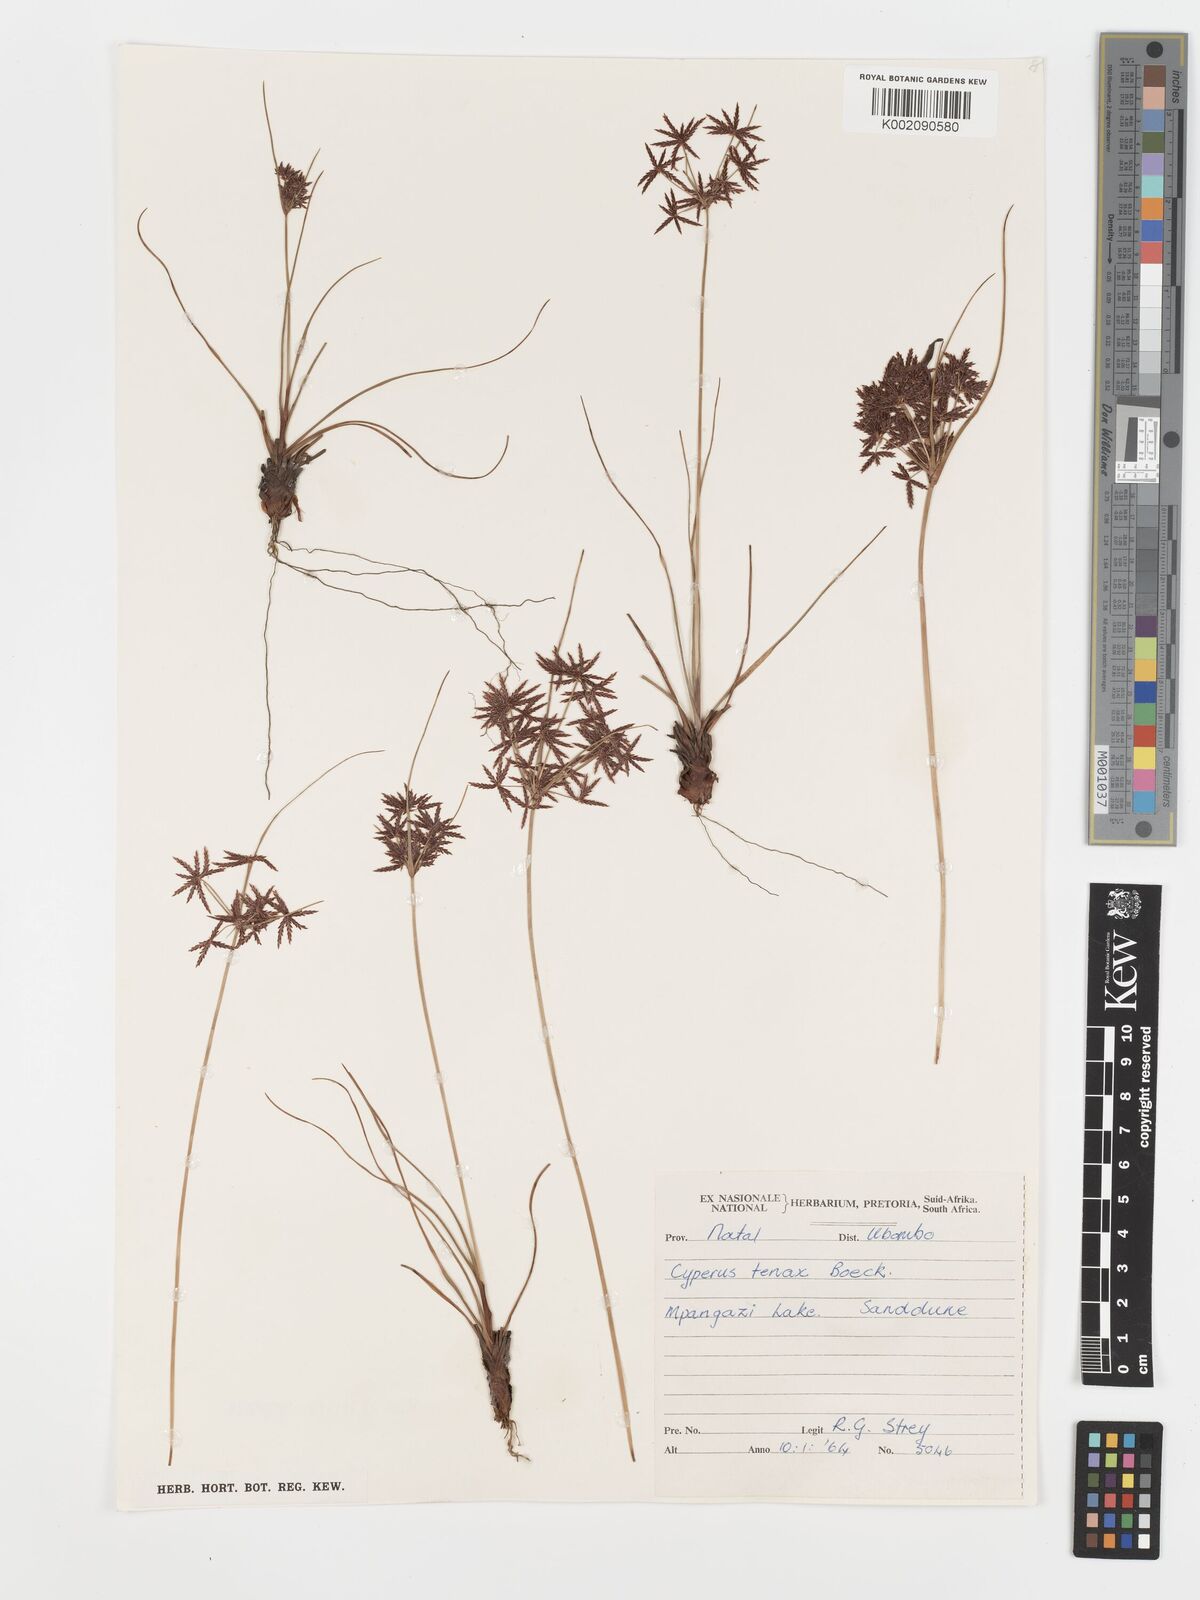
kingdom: Plantae
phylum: Tracheophyta
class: Liliopsida
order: Poales
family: Cyperaceae
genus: Cyperus
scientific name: Cyperus tenax
